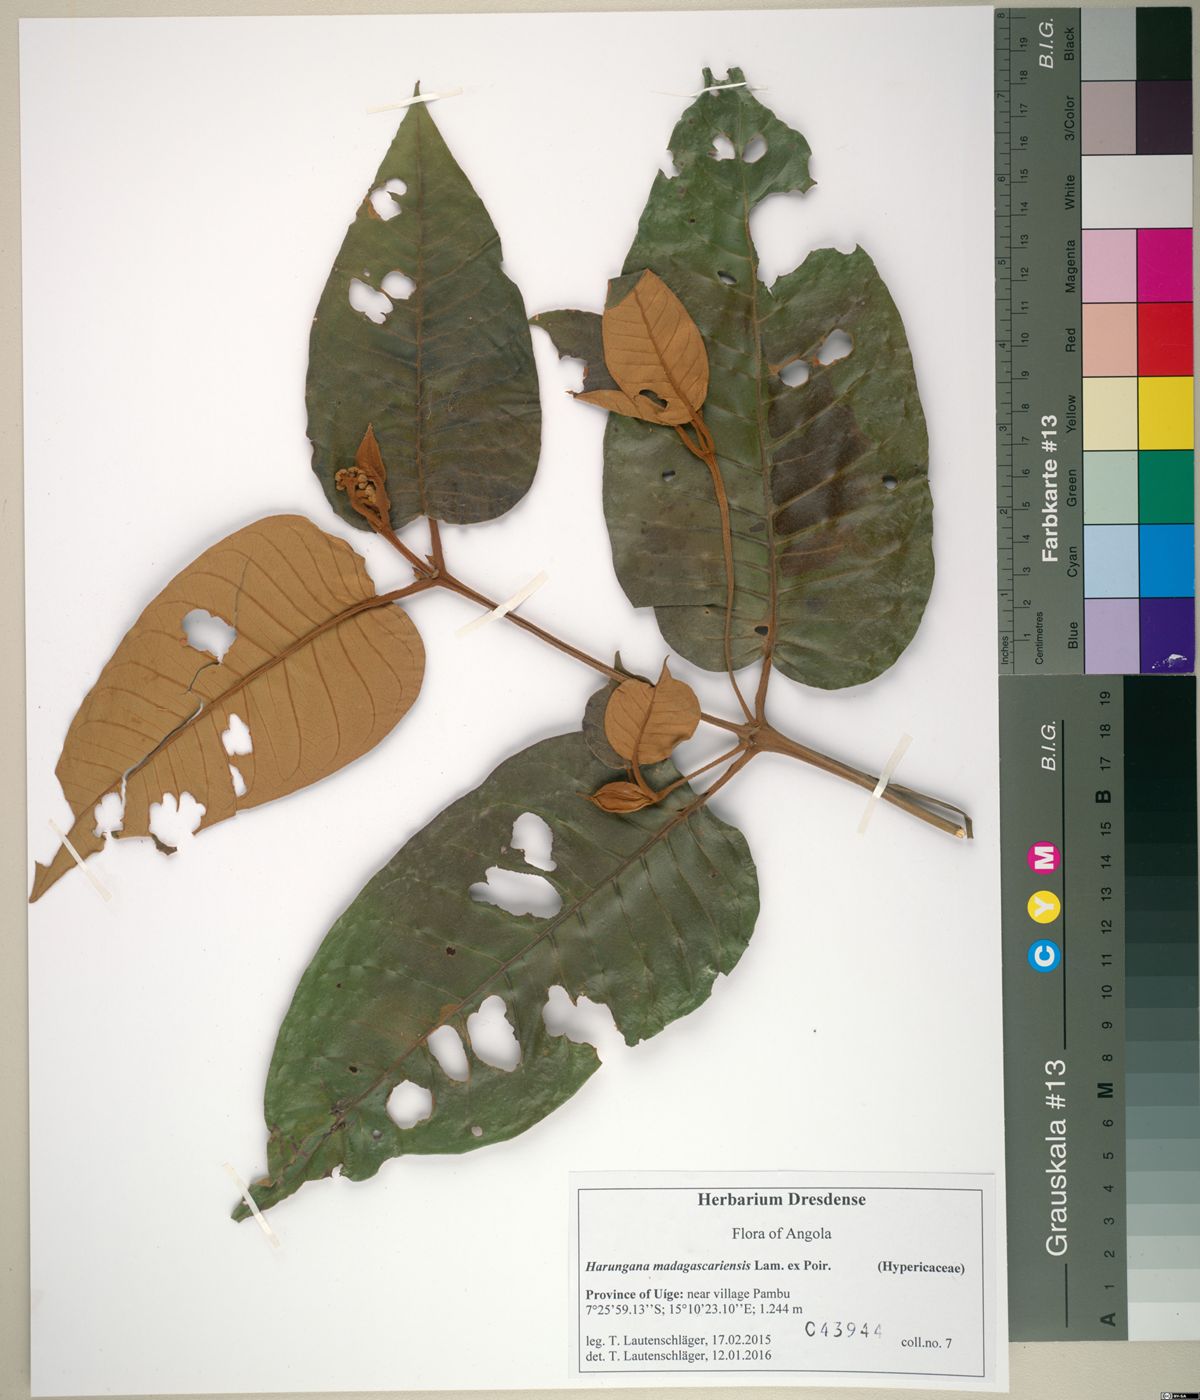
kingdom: Plantae
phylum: Tracheophyta
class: Magnoliopsida
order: Malpighiales
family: Hypericaceae
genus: Harungana
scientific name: Harungana madagascariensis
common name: Orange milktree
